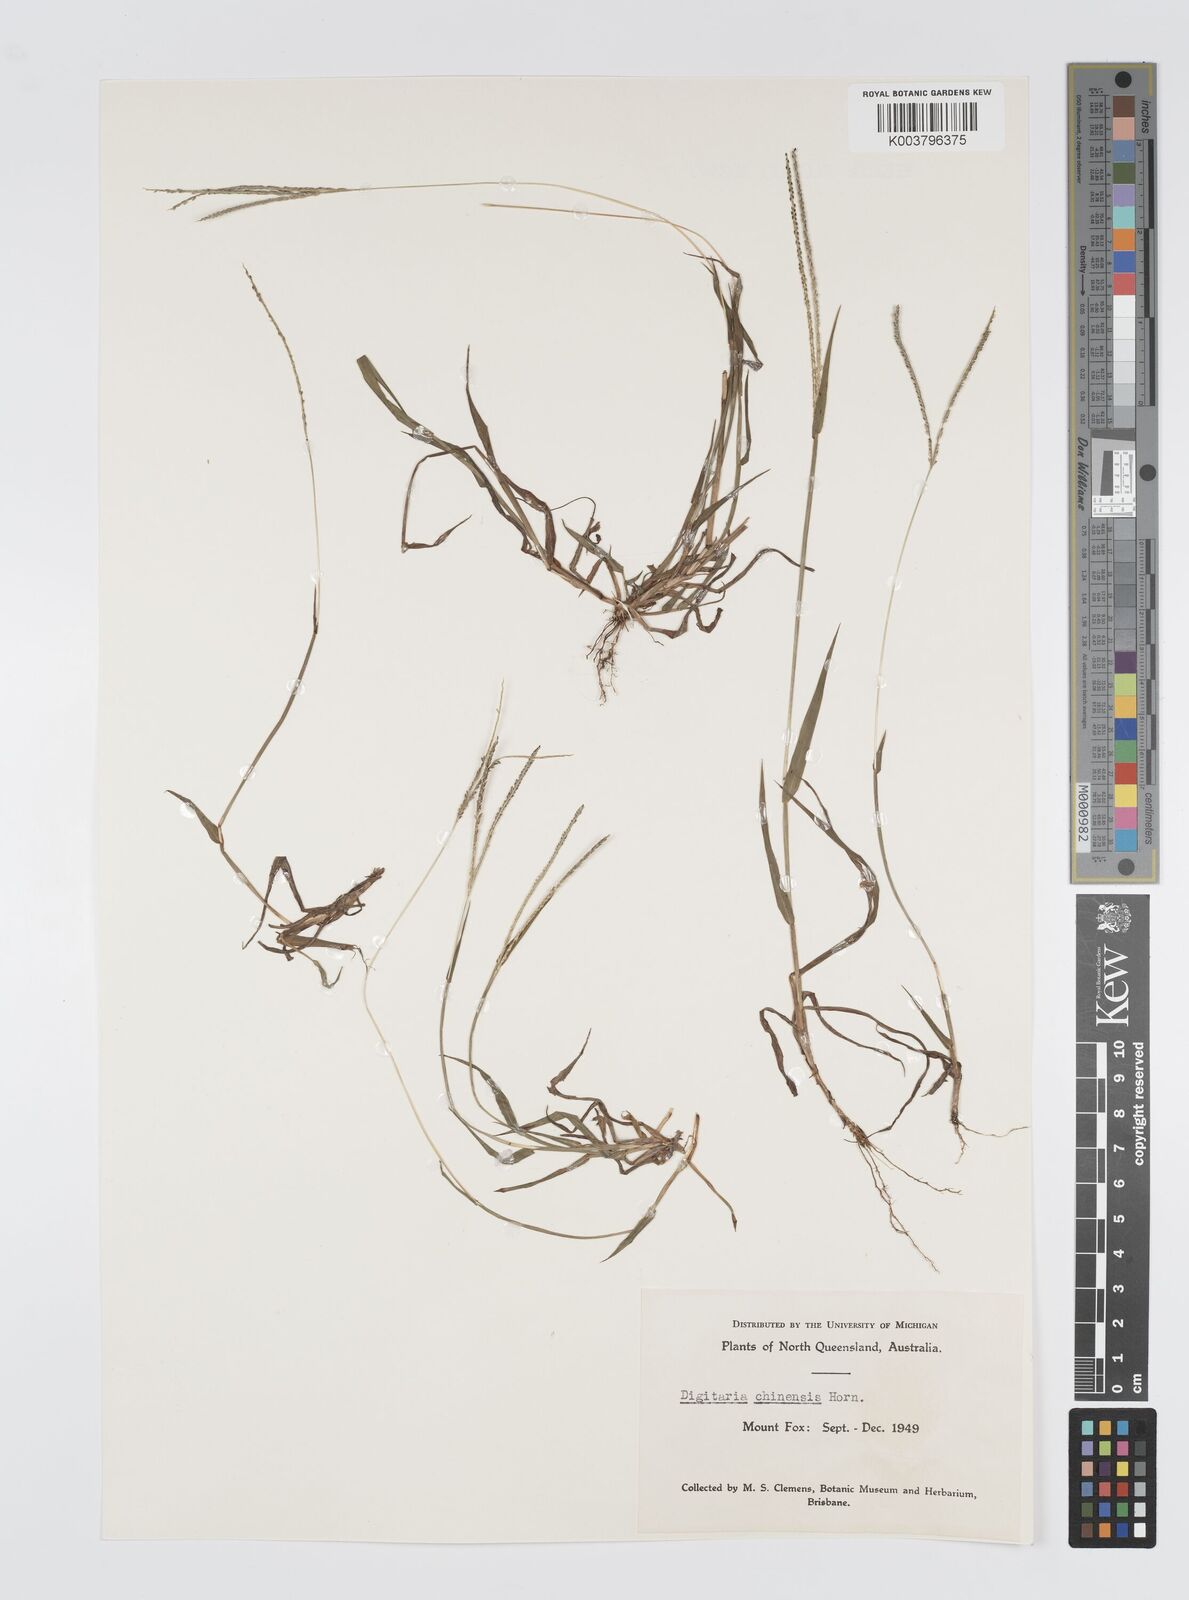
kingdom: Plantae
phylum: Tracheophyta
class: Liliopsida
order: Poales
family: Poaceae
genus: Digitaria
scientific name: Digitaria violascens
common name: Violet crabgrass
